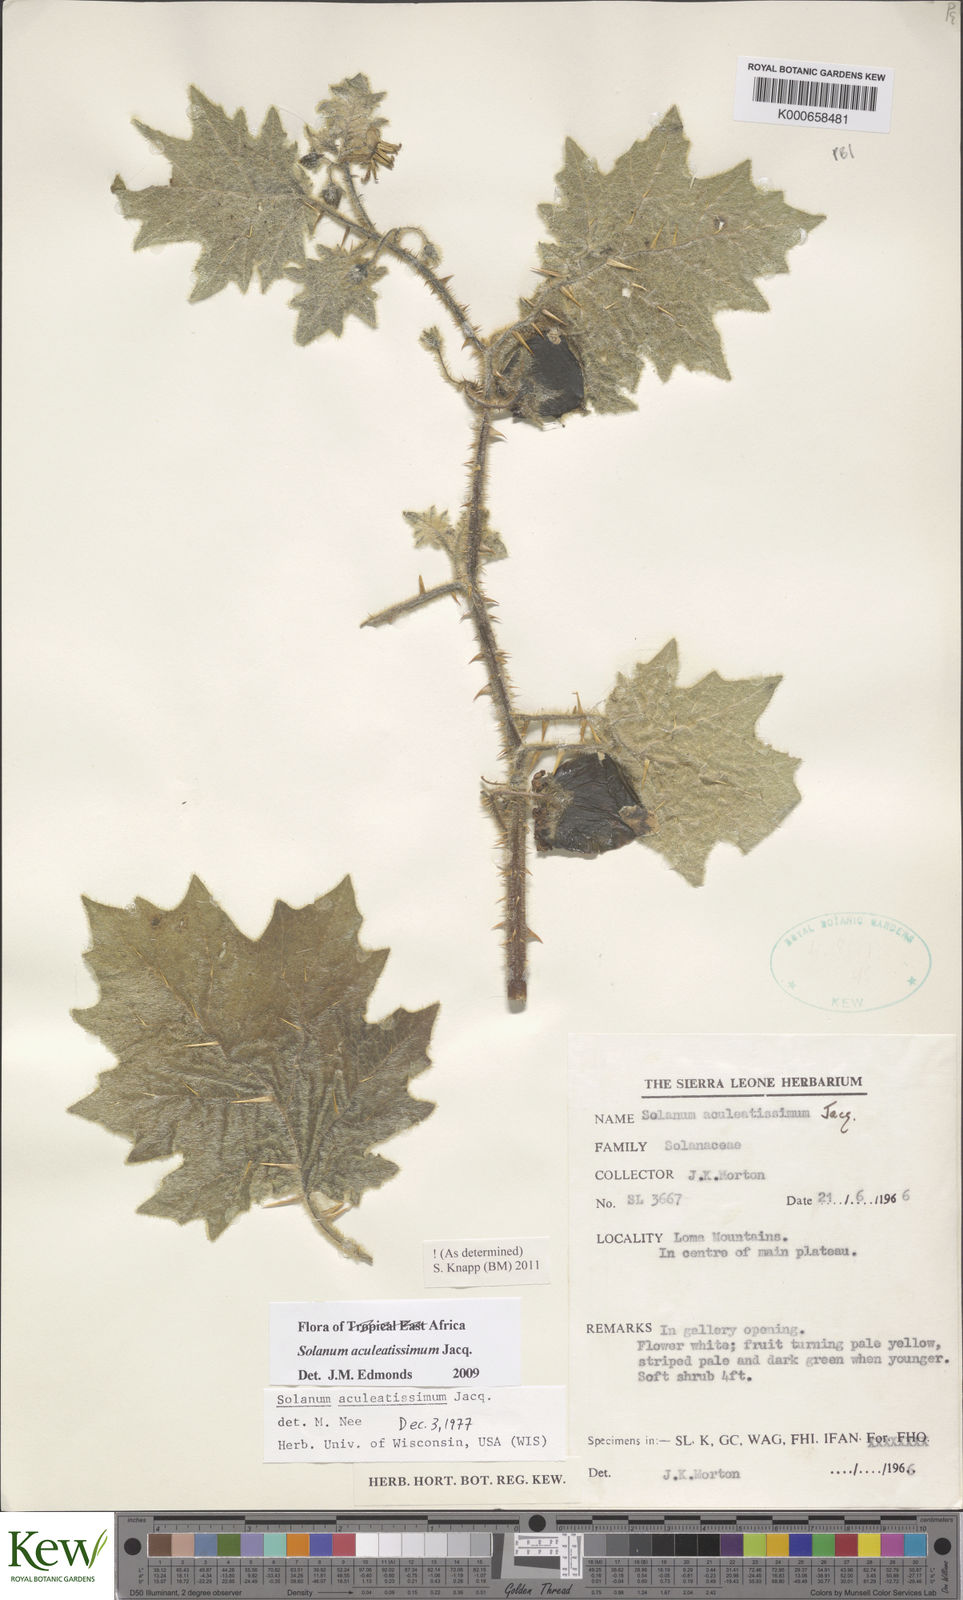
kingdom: Plantae
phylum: Tracheophyta
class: Magnoliopsida
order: Solanales
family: Solanaceae
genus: Solanum
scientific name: Solanum aculeatissimum
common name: Dutch eggplant
